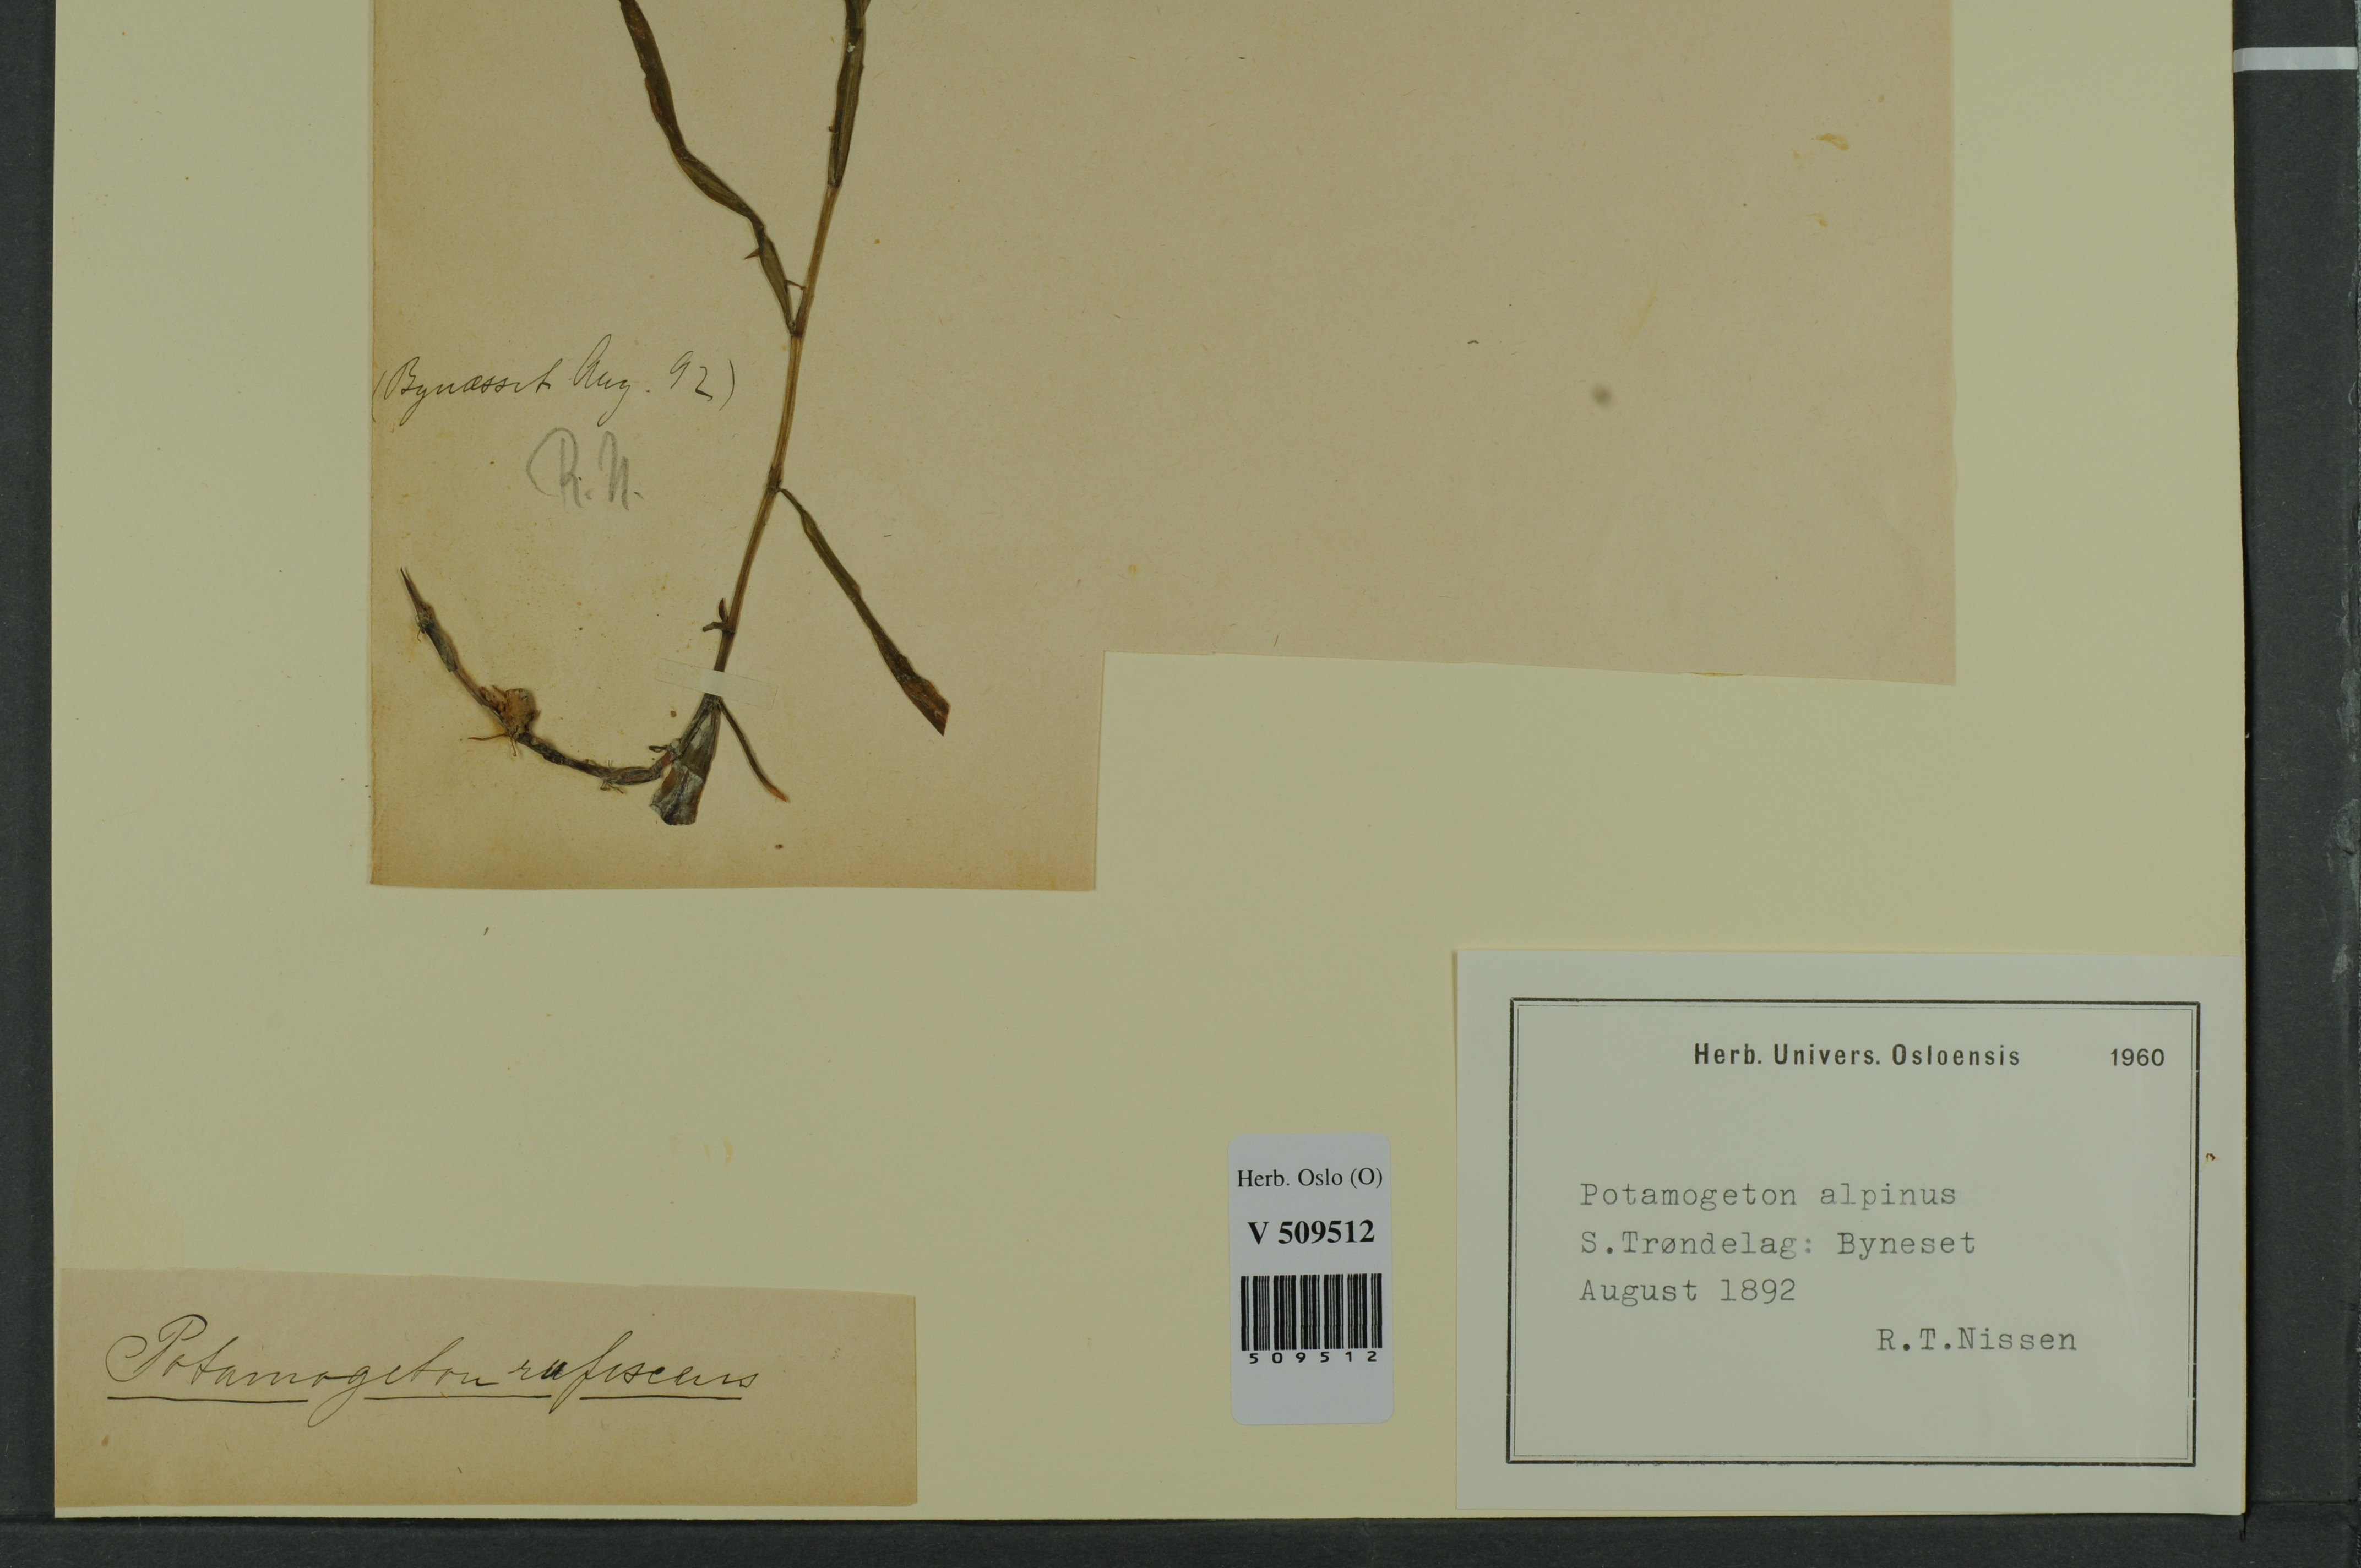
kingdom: Plantae
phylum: Tracheophyta
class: Liliopsida
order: Alismatales
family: Potamogetonaceae
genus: Potamogeton
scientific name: Potamogeton alpinus
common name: Red pondweed
